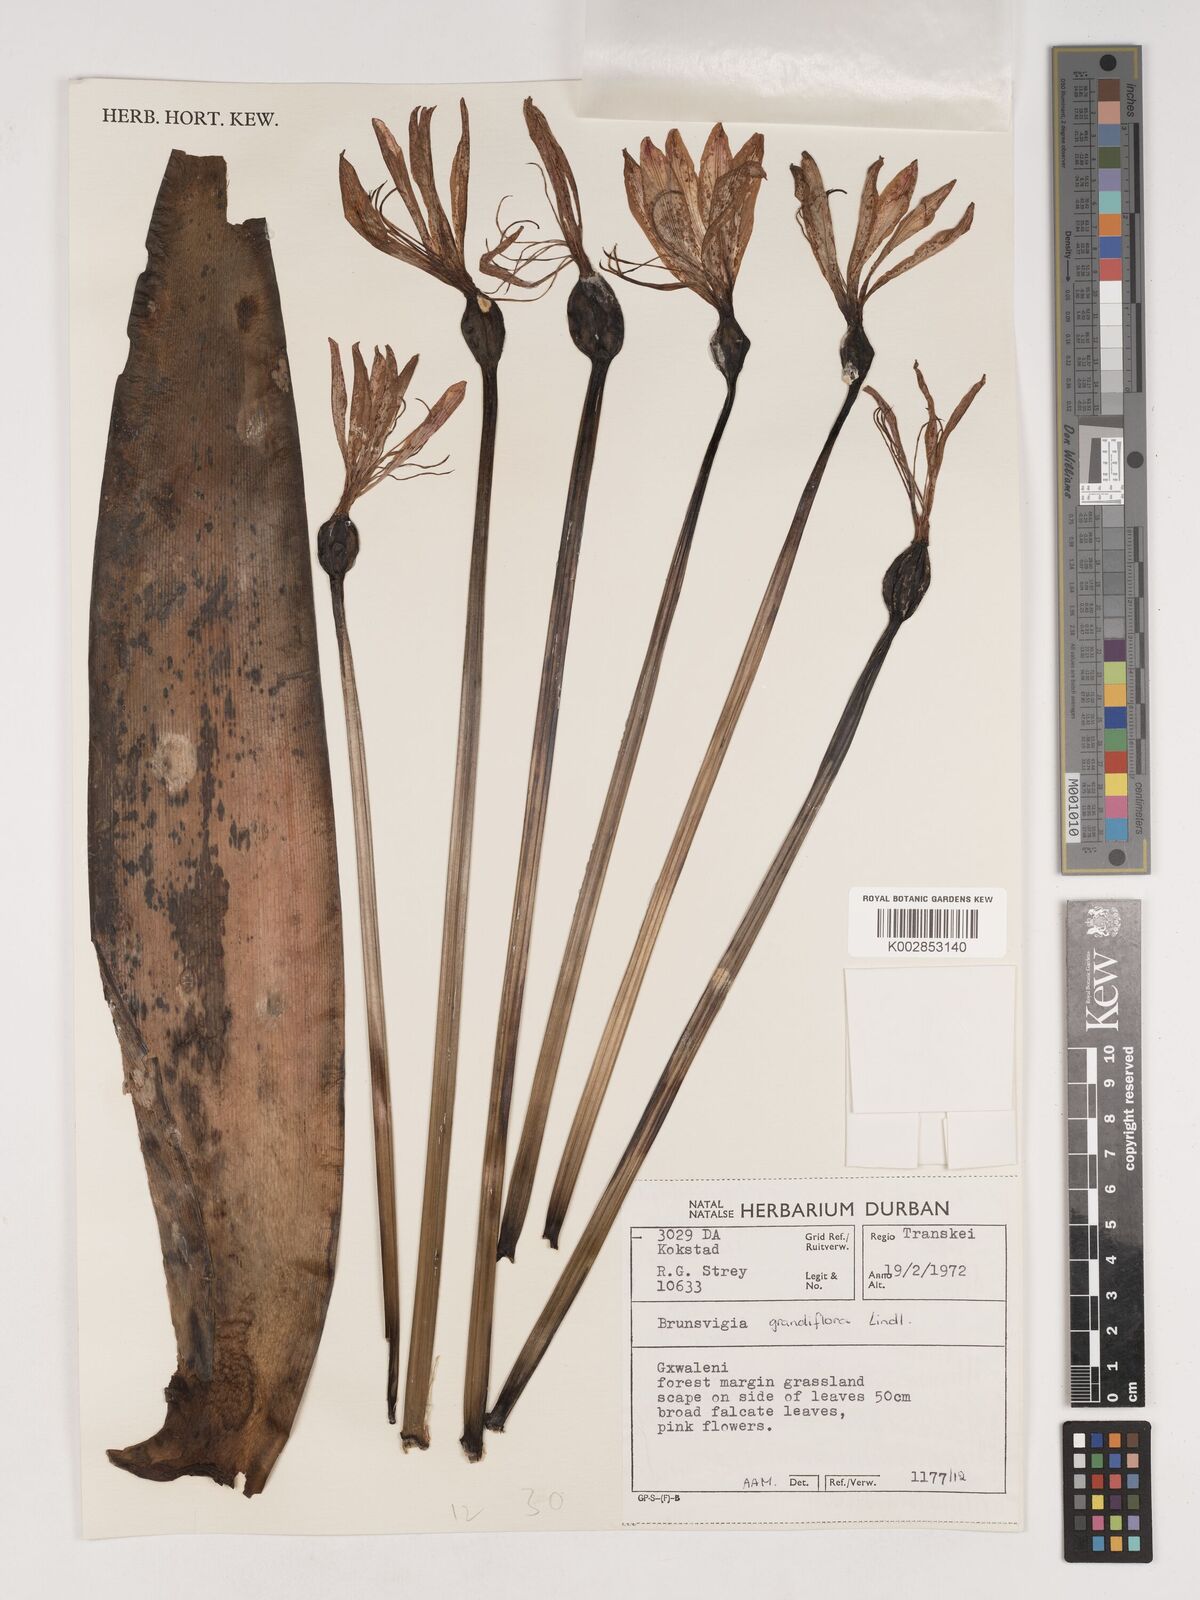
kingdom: Plantae
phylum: Tracheophyta
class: Liliopsida
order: Asparagales
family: Amaryllidaceae
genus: Brunsvigia
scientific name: Brunsvigia grandiflora
